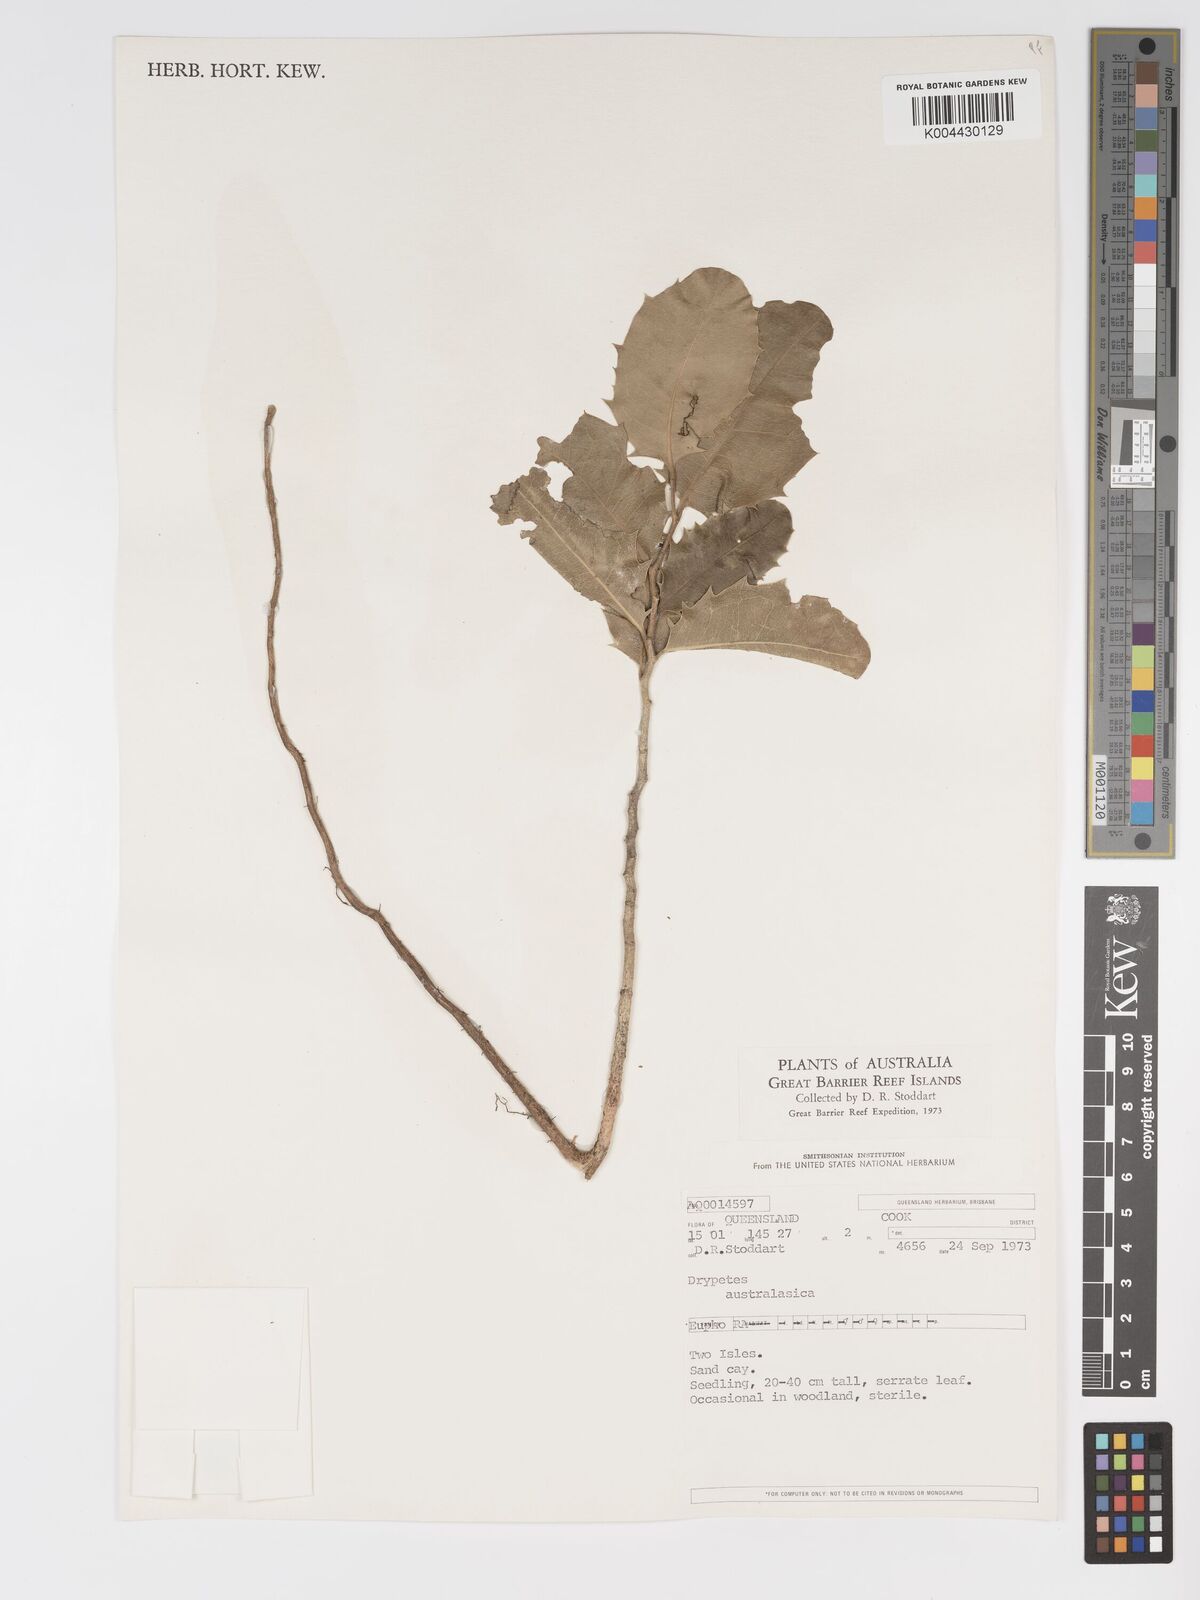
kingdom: Plantae
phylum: Tracheophyta
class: Magnoliopsida
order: Malpighiales
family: Putranjivaceae
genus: Drypetes
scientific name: Drypetes deplanchei
